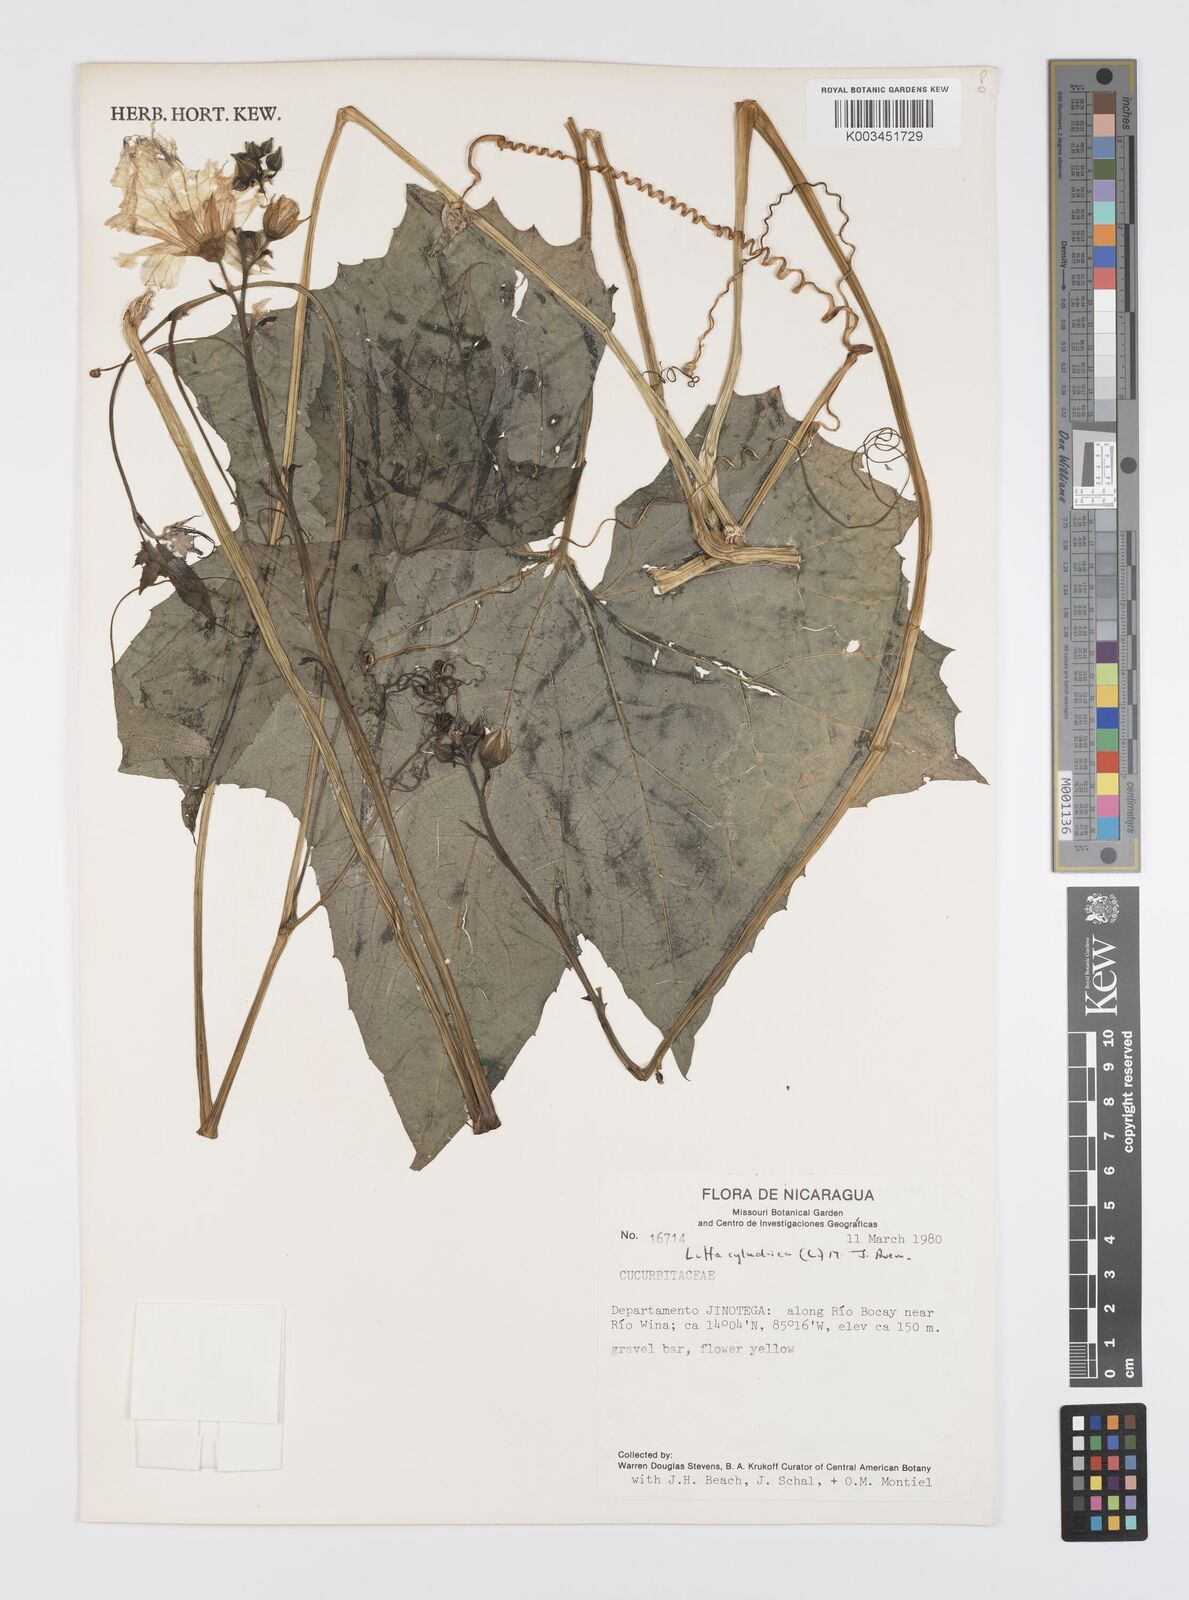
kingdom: Plantae
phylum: Tracheophyta
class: Magnoliopsida
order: Cucurbitales
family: Cucurbitaceae
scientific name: Cucurbitaceae
